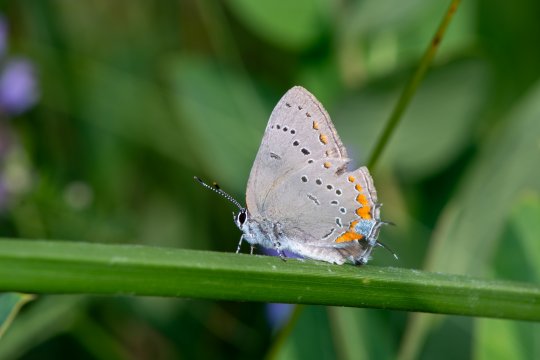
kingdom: Animalia
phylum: Arthropoda
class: Insecta
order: Lepidoptera
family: Lycaenidae
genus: Strymon
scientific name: Strymon acadica
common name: Acadian Hairstreak
